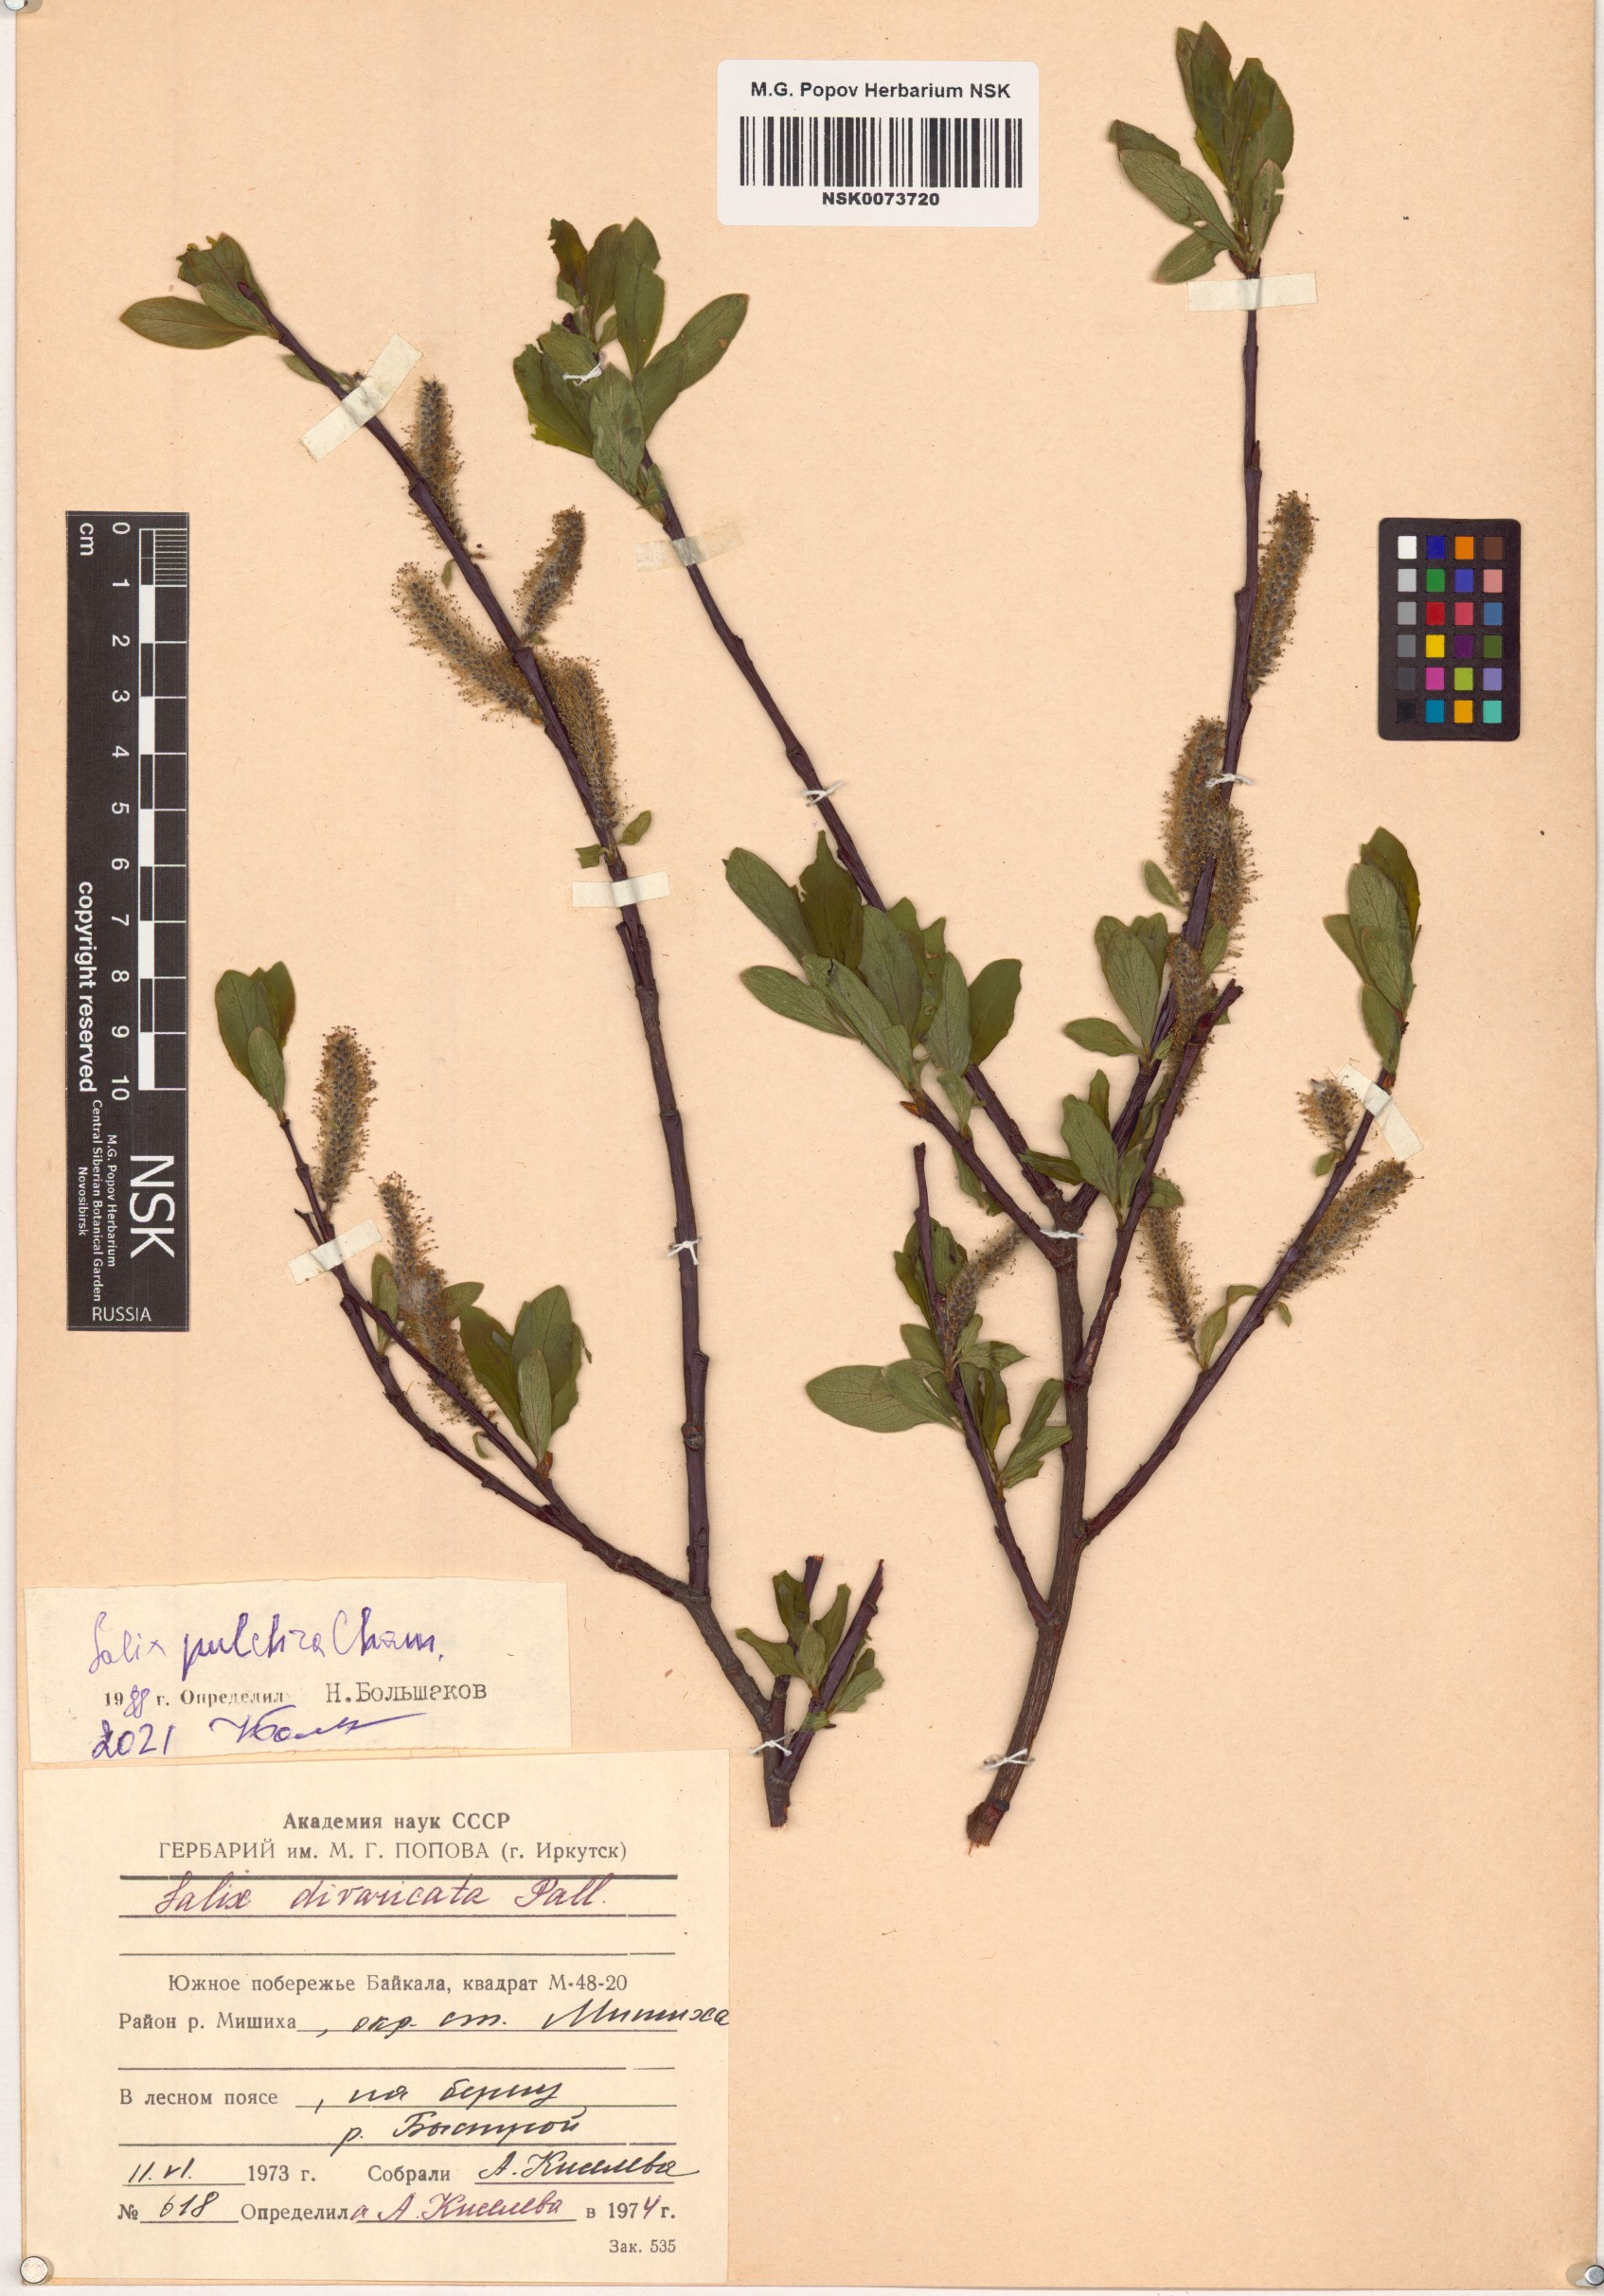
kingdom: Plantae
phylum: Tracheophyta
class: Magnoliopsida
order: Malpighiales
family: Salicaceae
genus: Salix
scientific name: Salix pulchra
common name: Diamond-leaved willow
